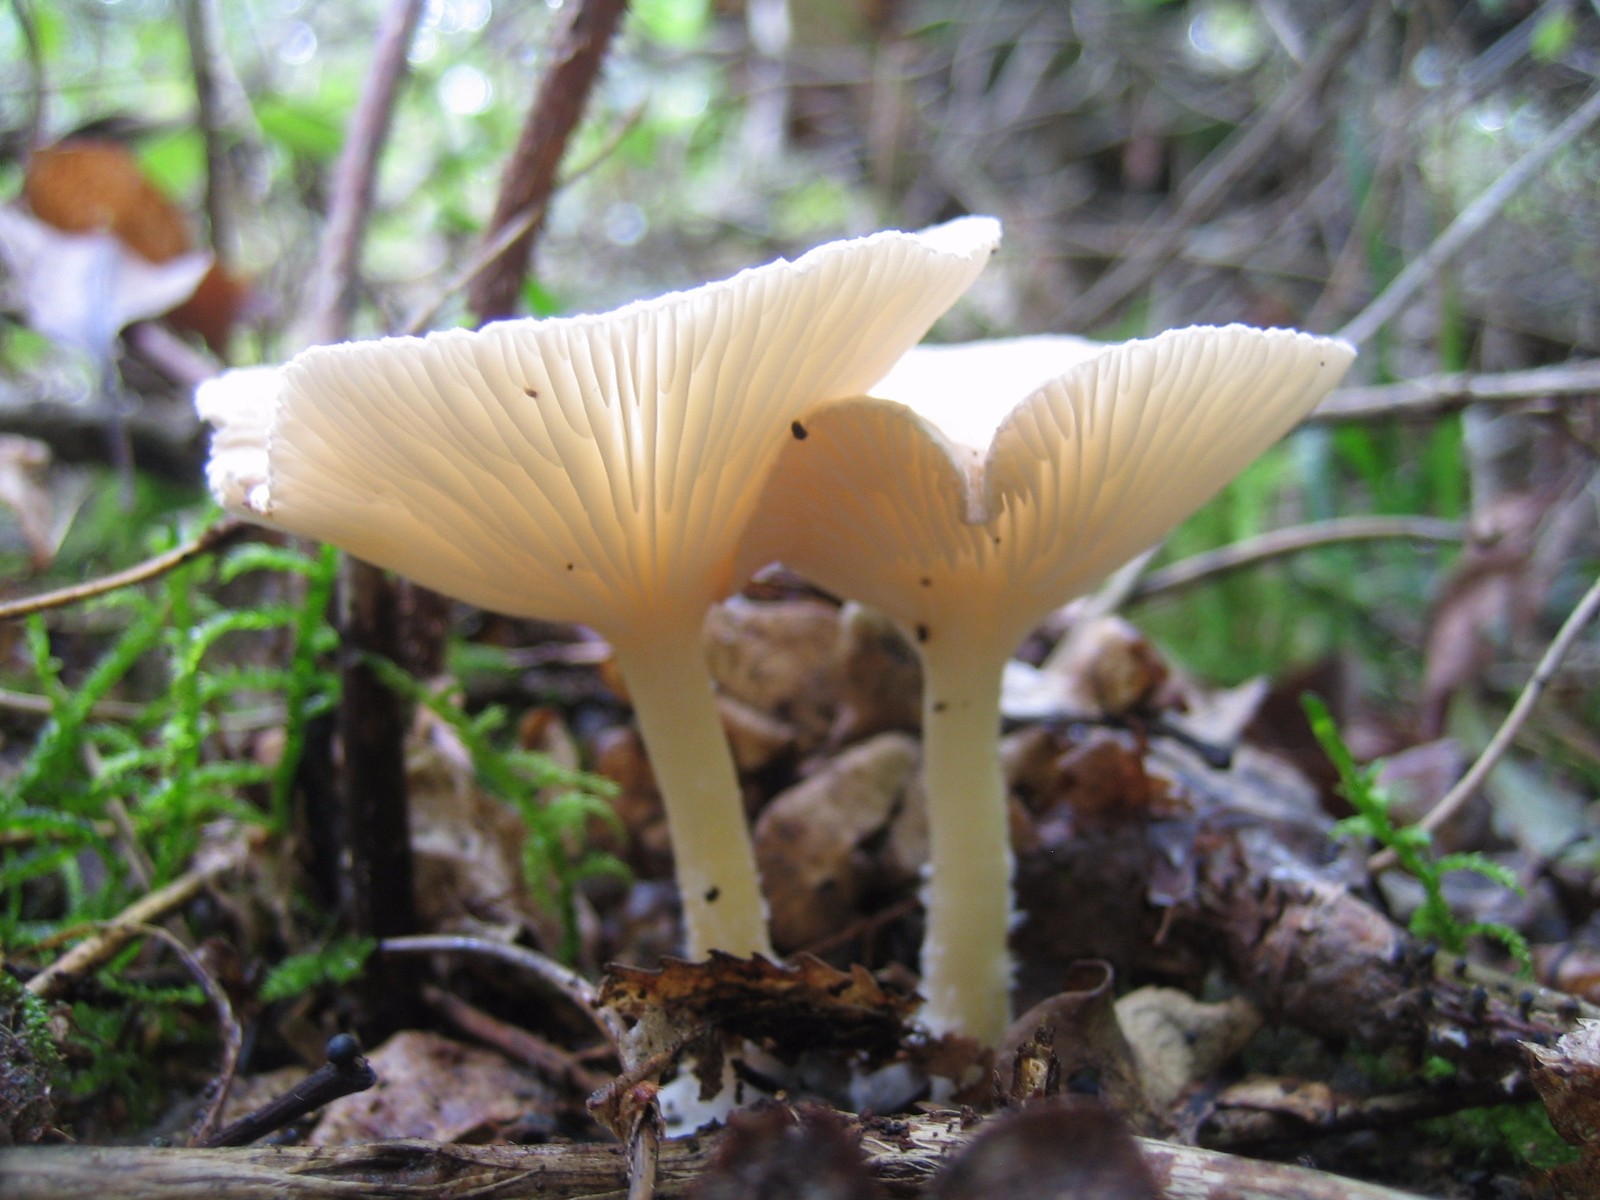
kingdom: Fungi
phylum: Basidiomycota
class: Agaricomycetes
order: Agaricales
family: Tricholomataceae
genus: Infundibulicybe
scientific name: Infundibulicybe
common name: tragthat
